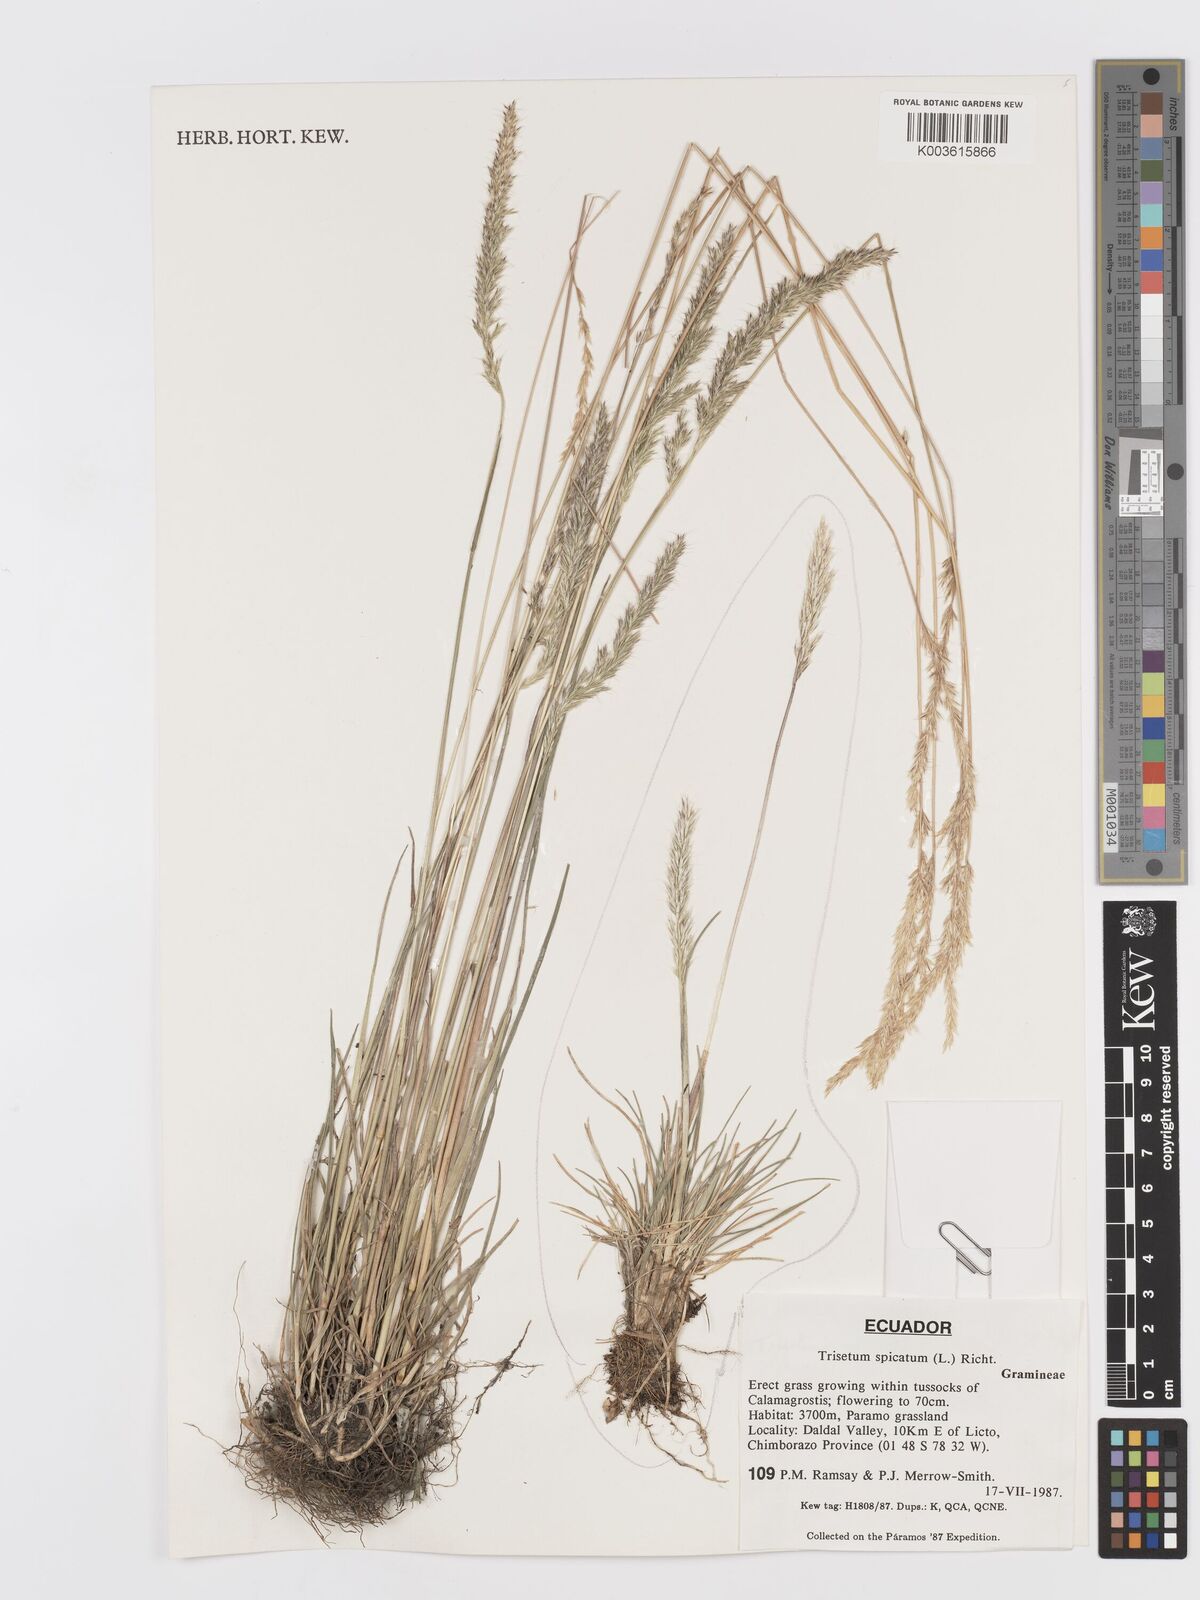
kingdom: Plantae
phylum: Tracheophyta
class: Liliopsida
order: Poales
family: Poaceae
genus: Koeleria
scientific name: Koeleria spicata
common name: Mountain trisetum
